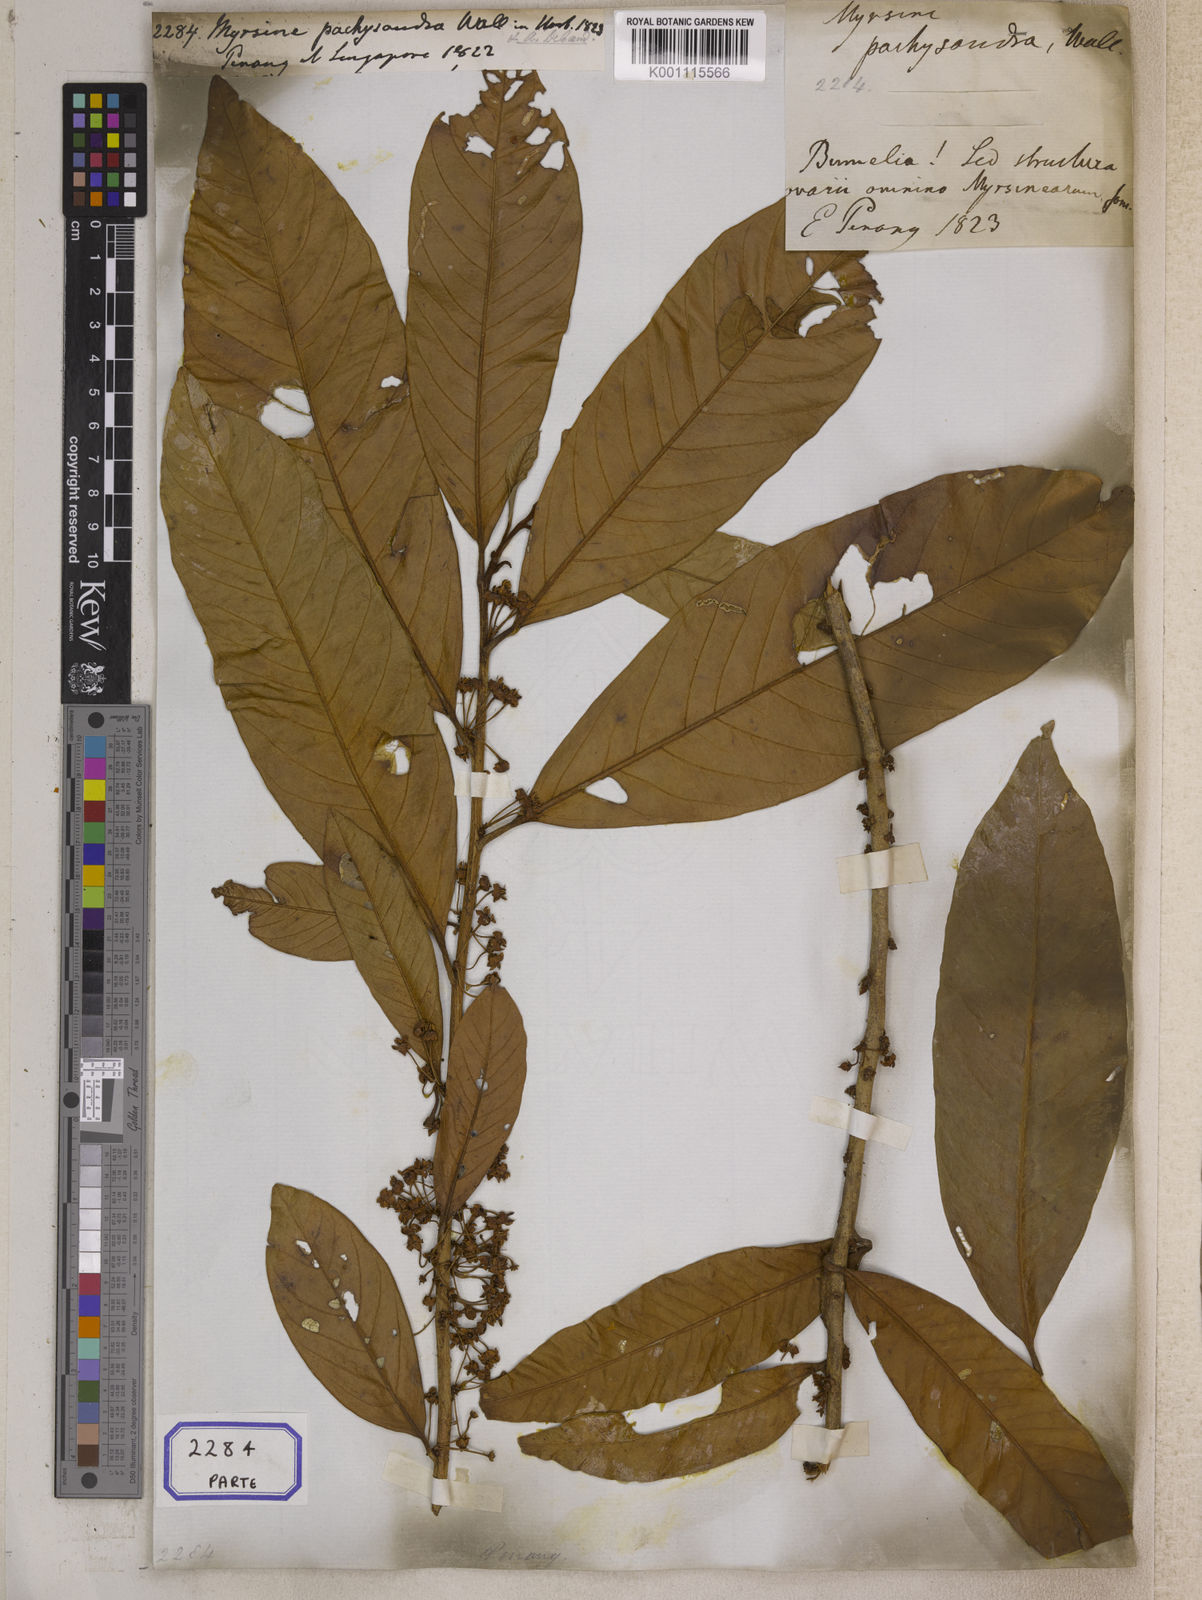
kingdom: Plantae
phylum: Tracheophyta
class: Magnoliopsida
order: Ericales
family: Primulaceae
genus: Ardisia
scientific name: Ardisia pachysandra
